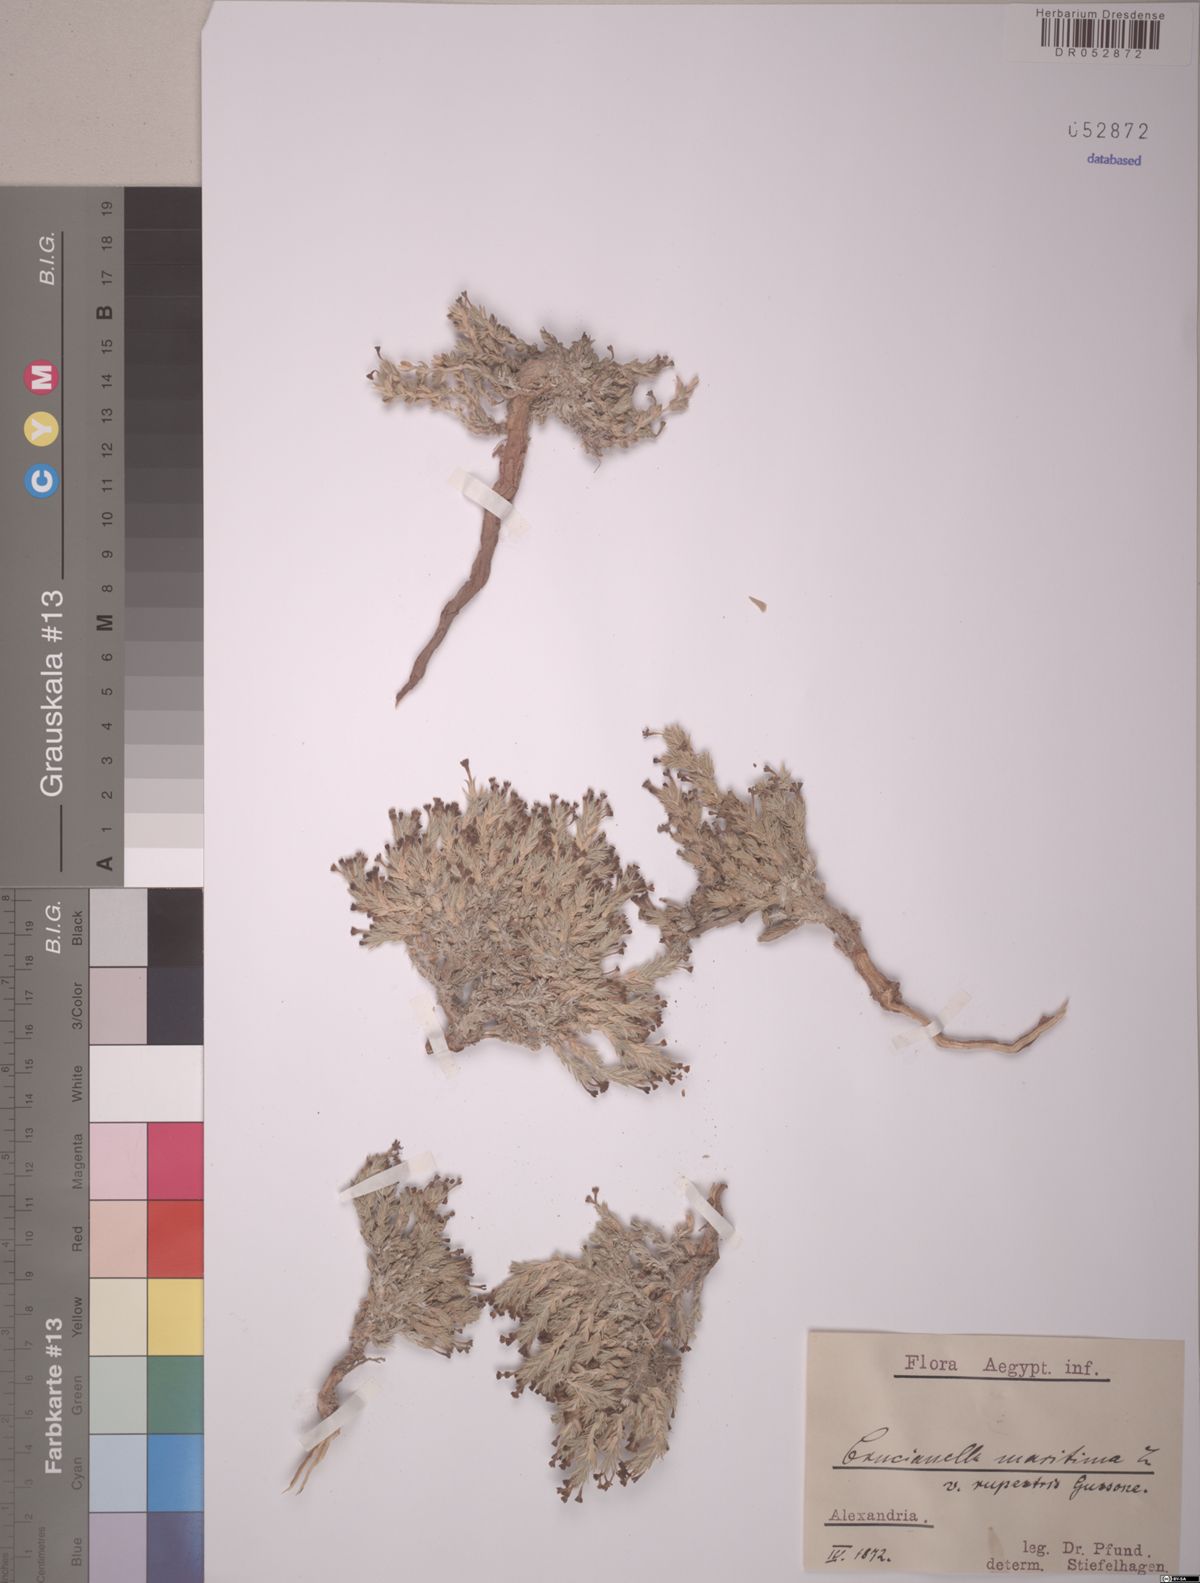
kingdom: Plantae
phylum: Tracheophyta
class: Magnoliopsida
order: Gentianales
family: Rubiaceae
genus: Crucianella
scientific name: Crucianella maritima
